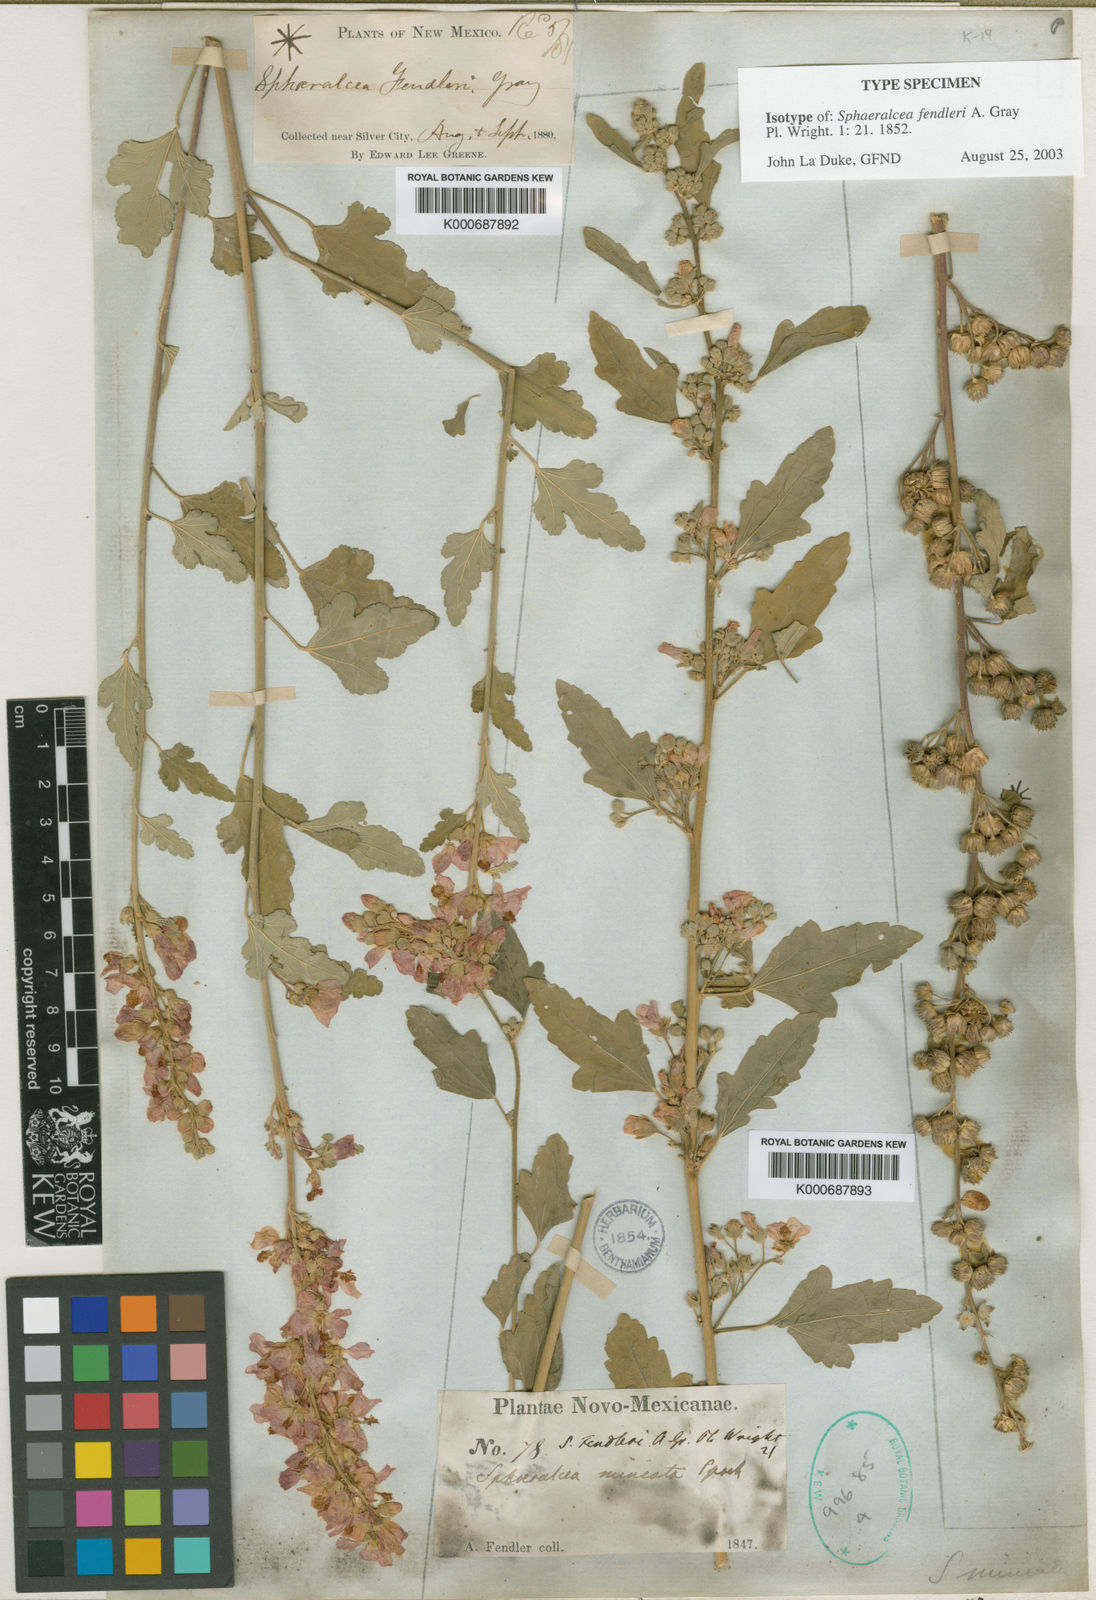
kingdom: Plantae
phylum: Tracheophyta
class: Magnoliopsida
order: Malvales
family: Malvaceae
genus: Sphaeralcea
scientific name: Sphaeralcea fendleri
